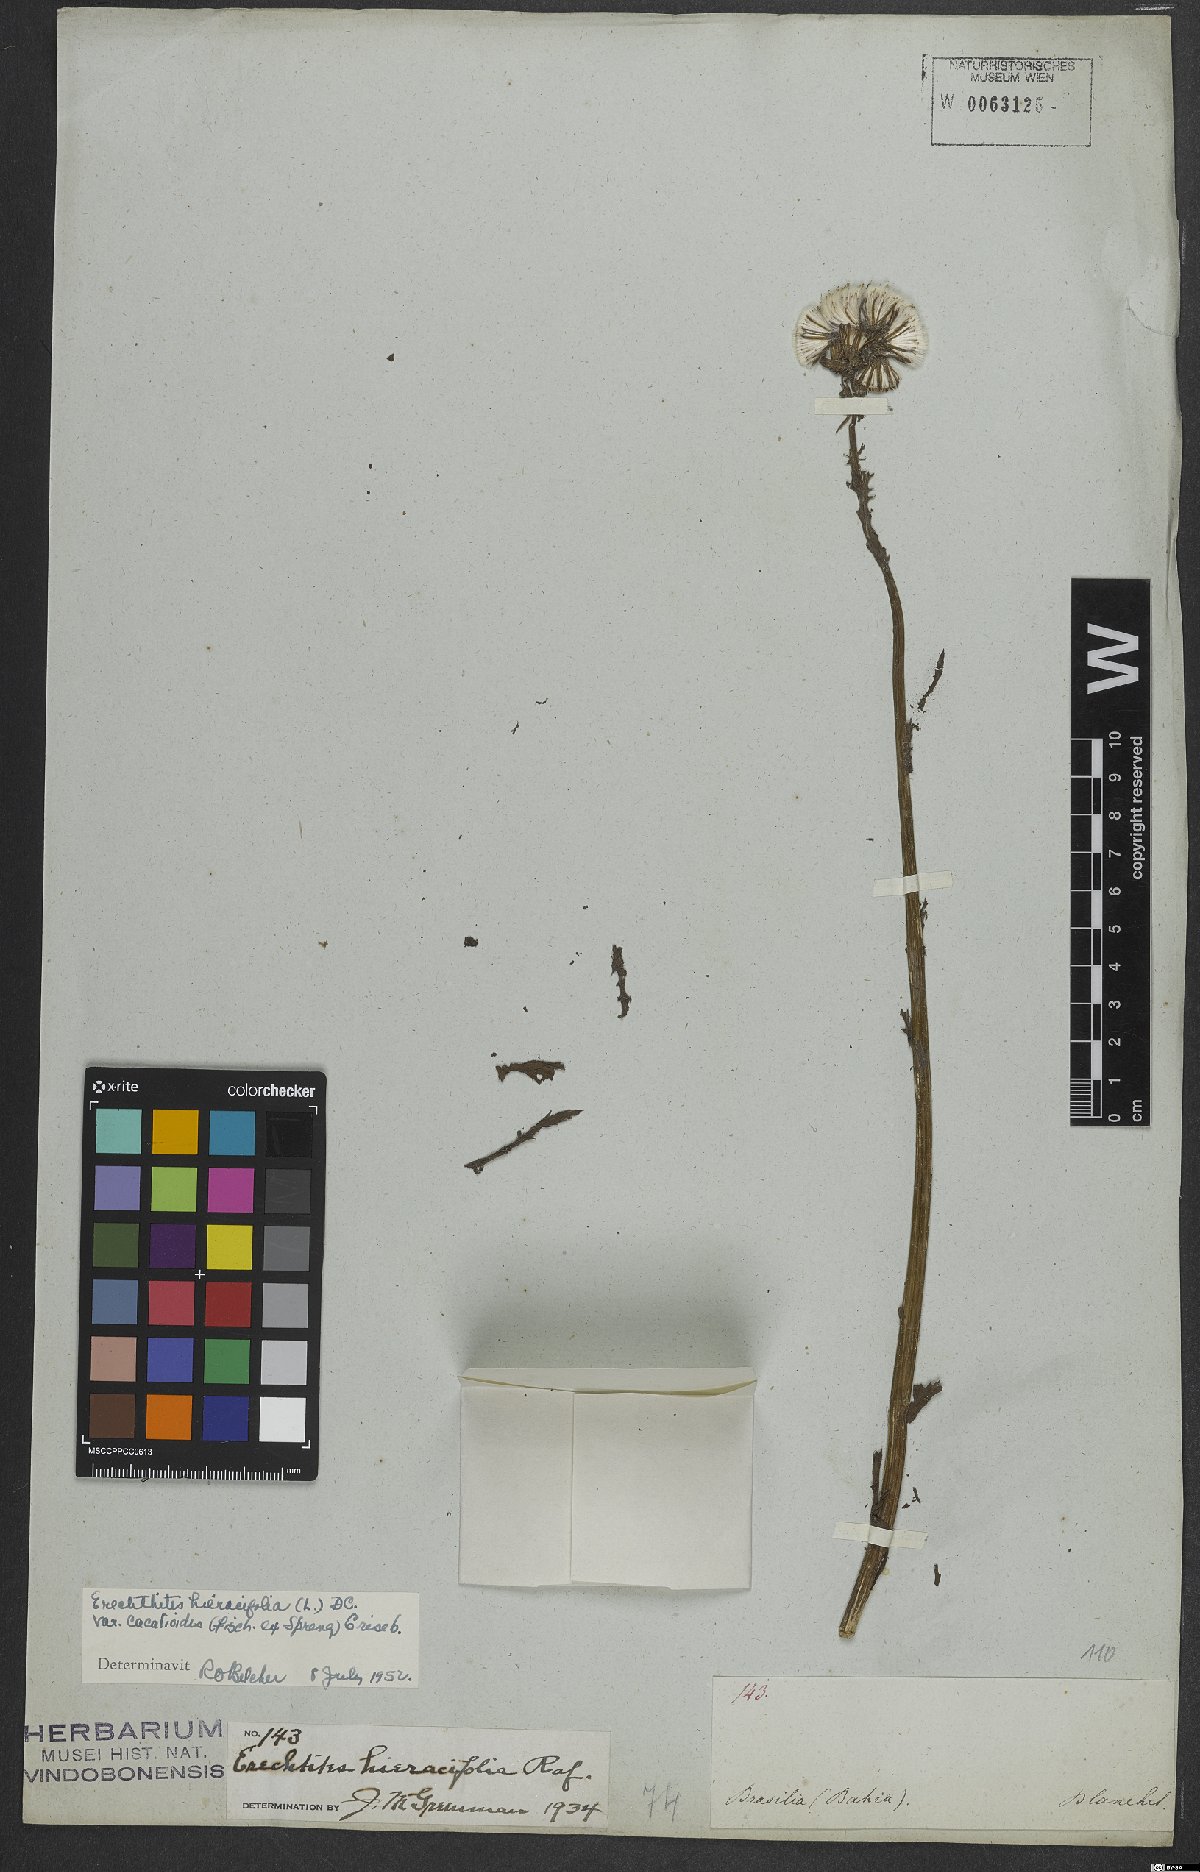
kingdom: Plantae
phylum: Tracheophyta
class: Magnoliopsida
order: Asterales
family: Asteraceae
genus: Erechtites
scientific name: Erechtites hieraciifolius
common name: American burnweed
